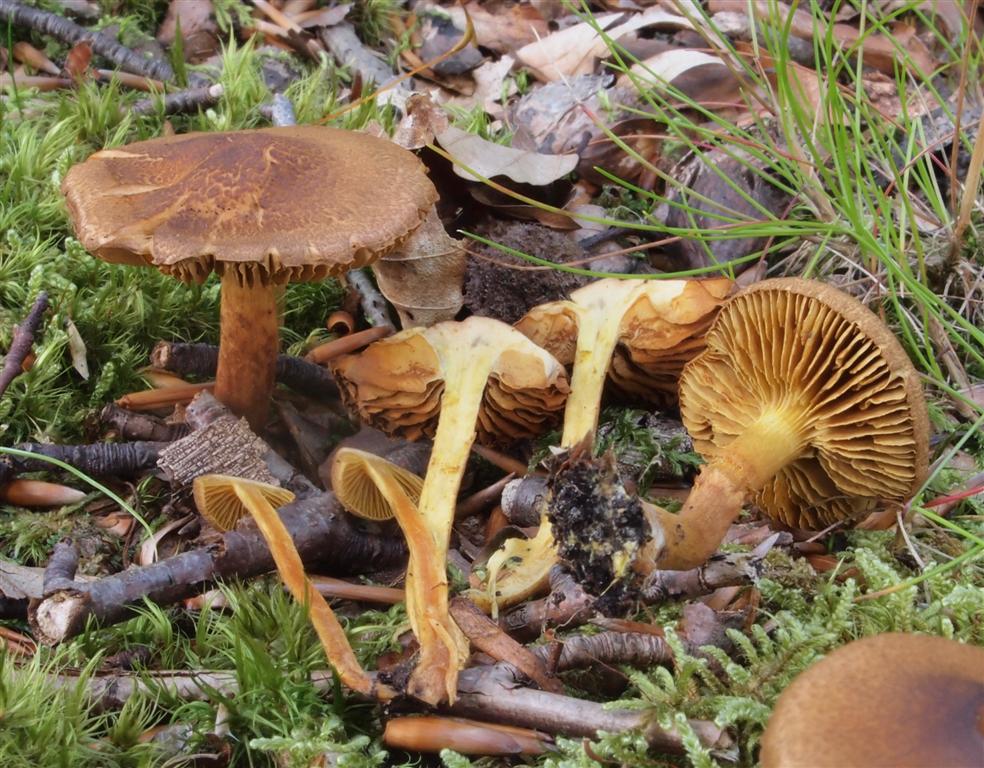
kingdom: Fungi
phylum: Basidiomycota
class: Agaricomycetes
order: Agaricales
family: Cortinariaceae
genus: Cortinarius
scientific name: Cortinarius
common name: gulbladet slørhat
